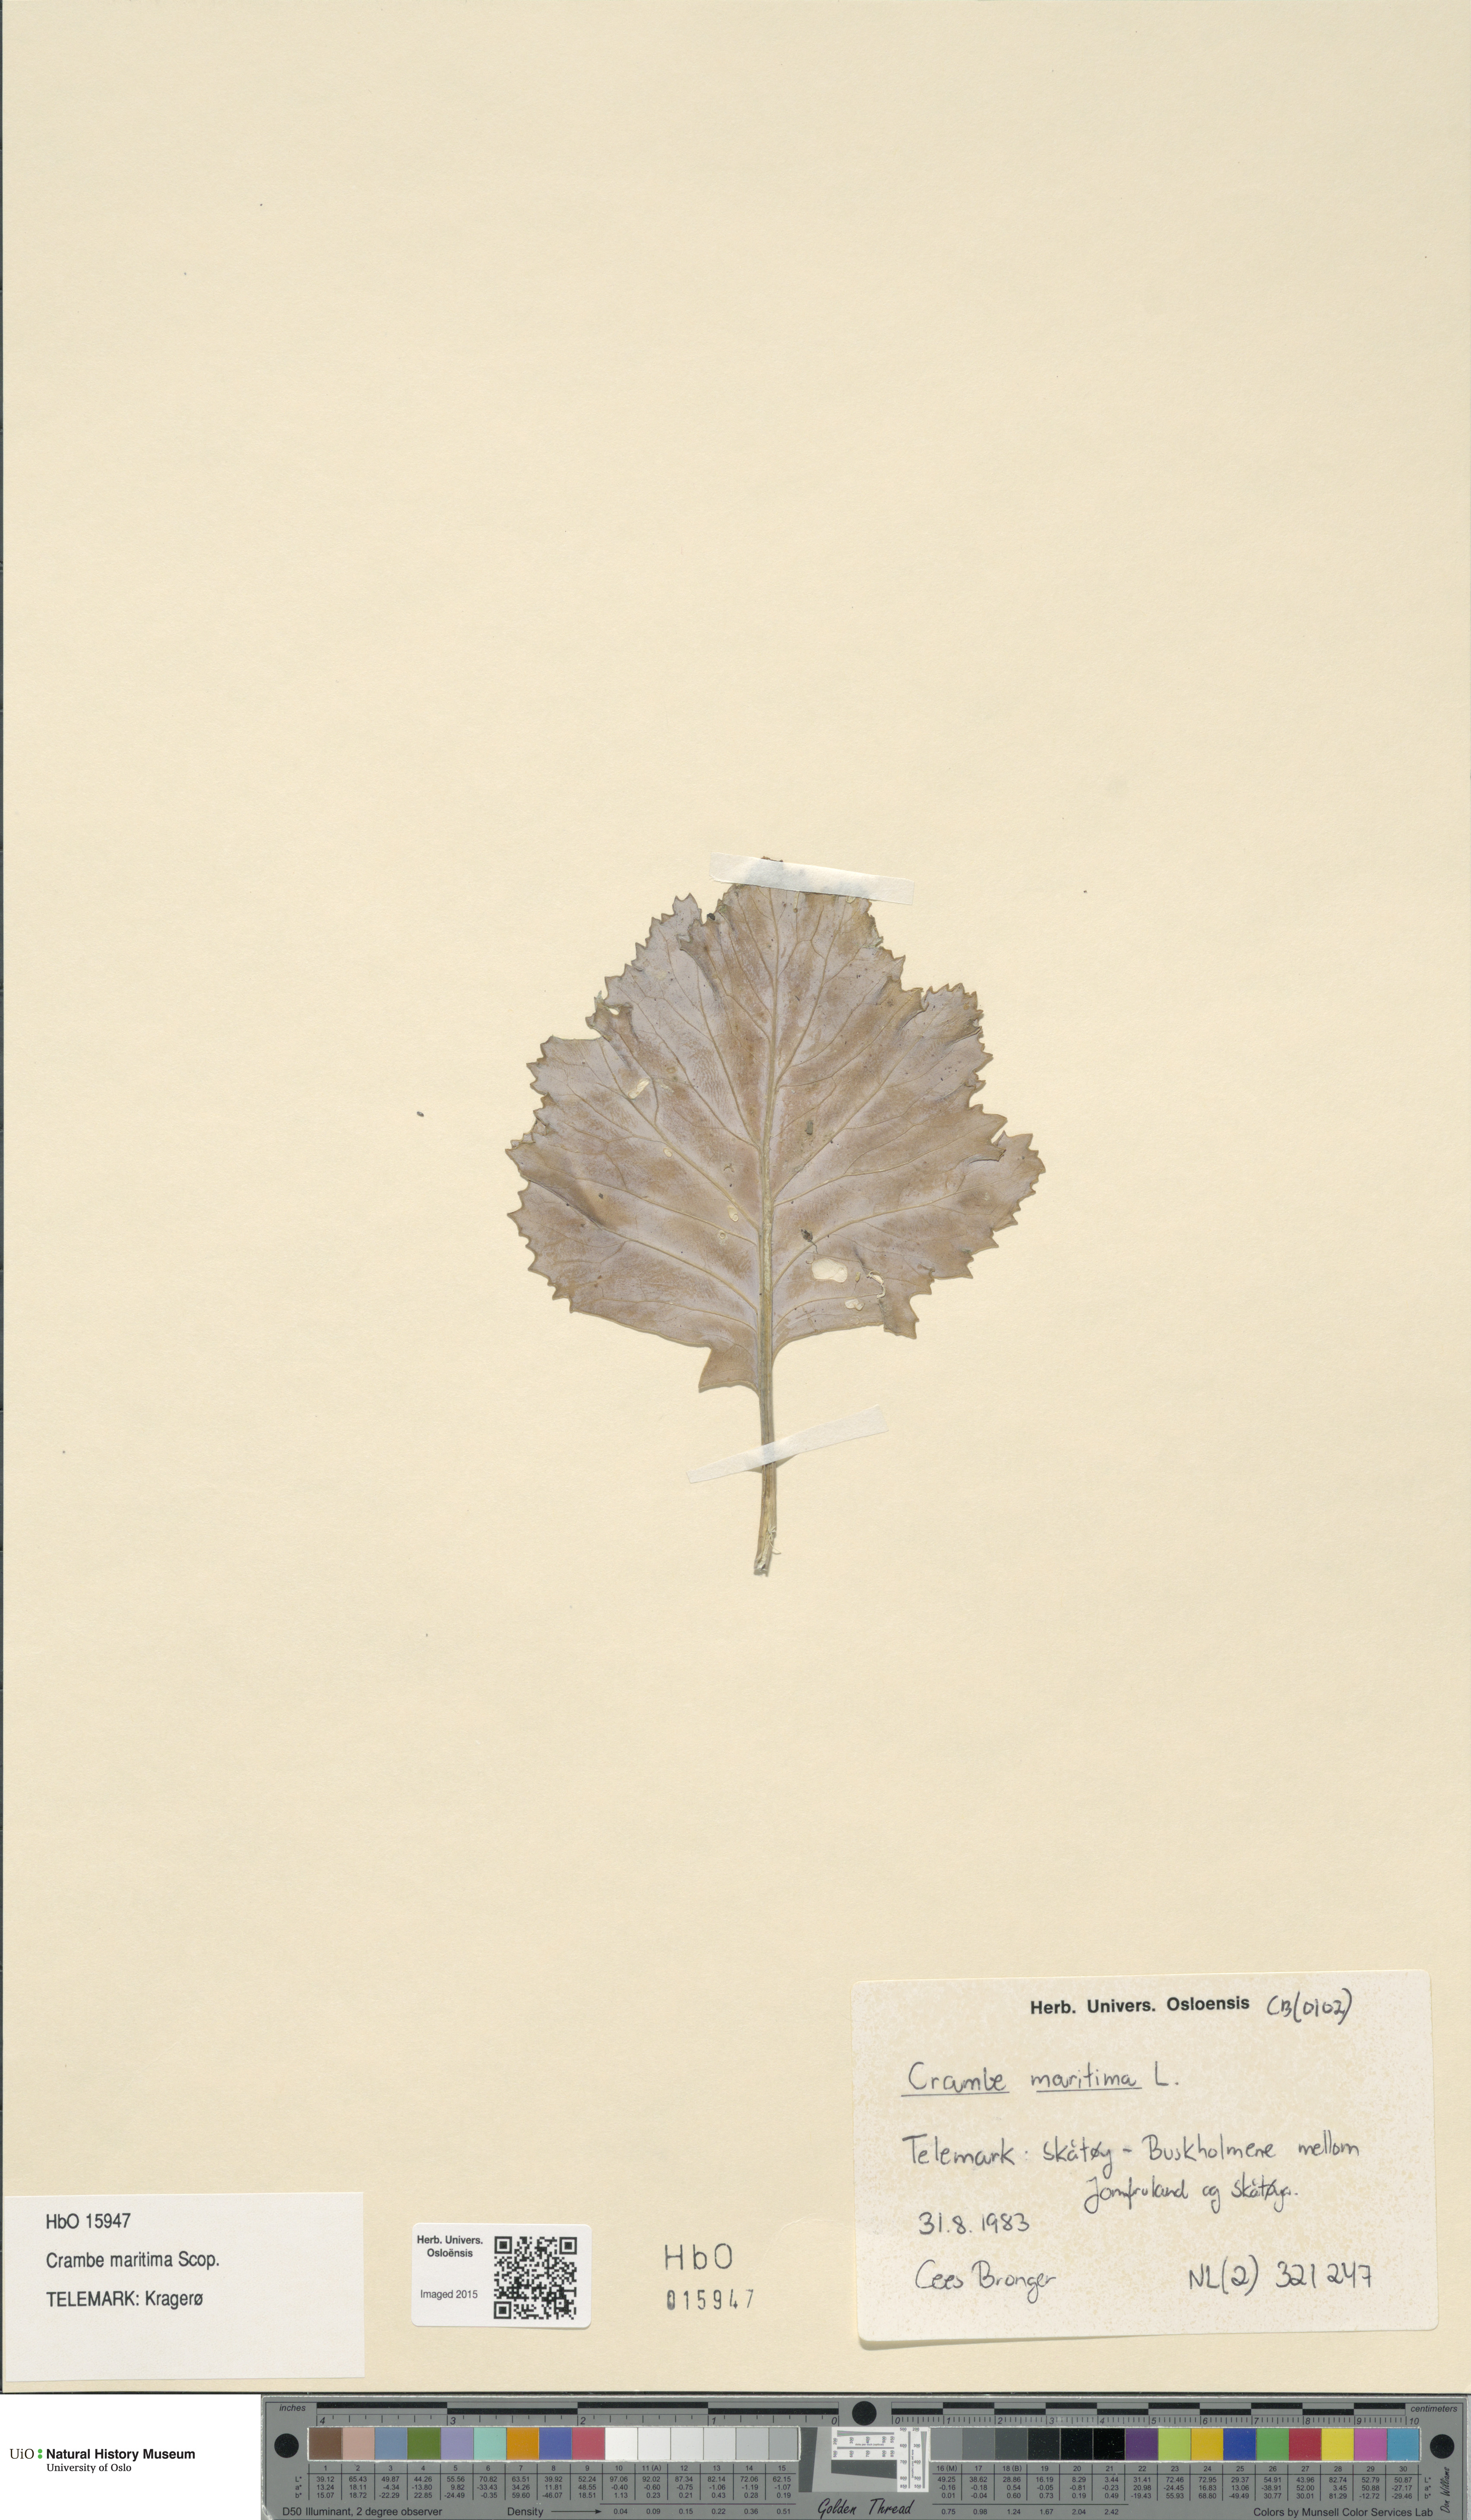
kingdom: Plantae
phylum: Tracheophyta
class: Magnoliopsida
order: Brassicales
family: Brassicaceae
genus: Crambe
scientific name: Crambe maritima
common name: Sea-kale
